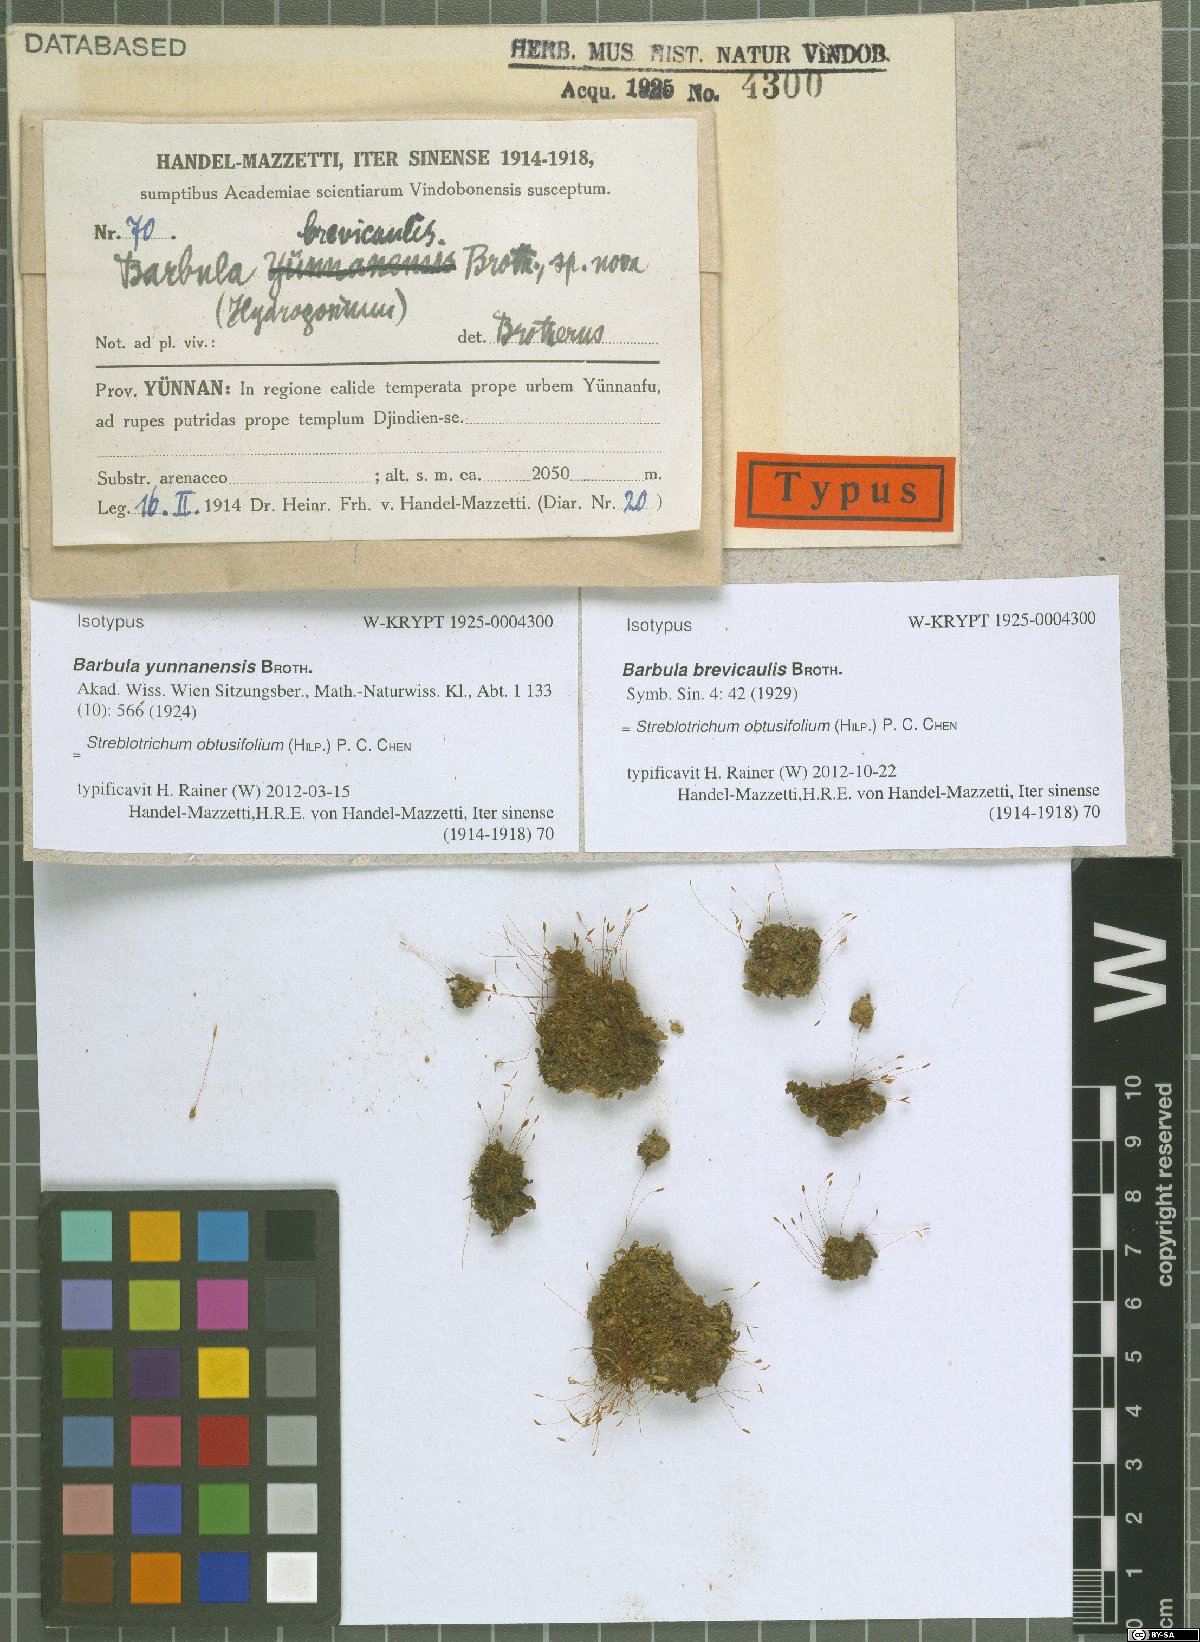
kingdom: Plantae
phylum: Bryophyta
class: Bryopsida
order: Pottiales
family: Pottiaceae
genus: Hydrogonium
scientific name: Hydrogonium consanguineum
